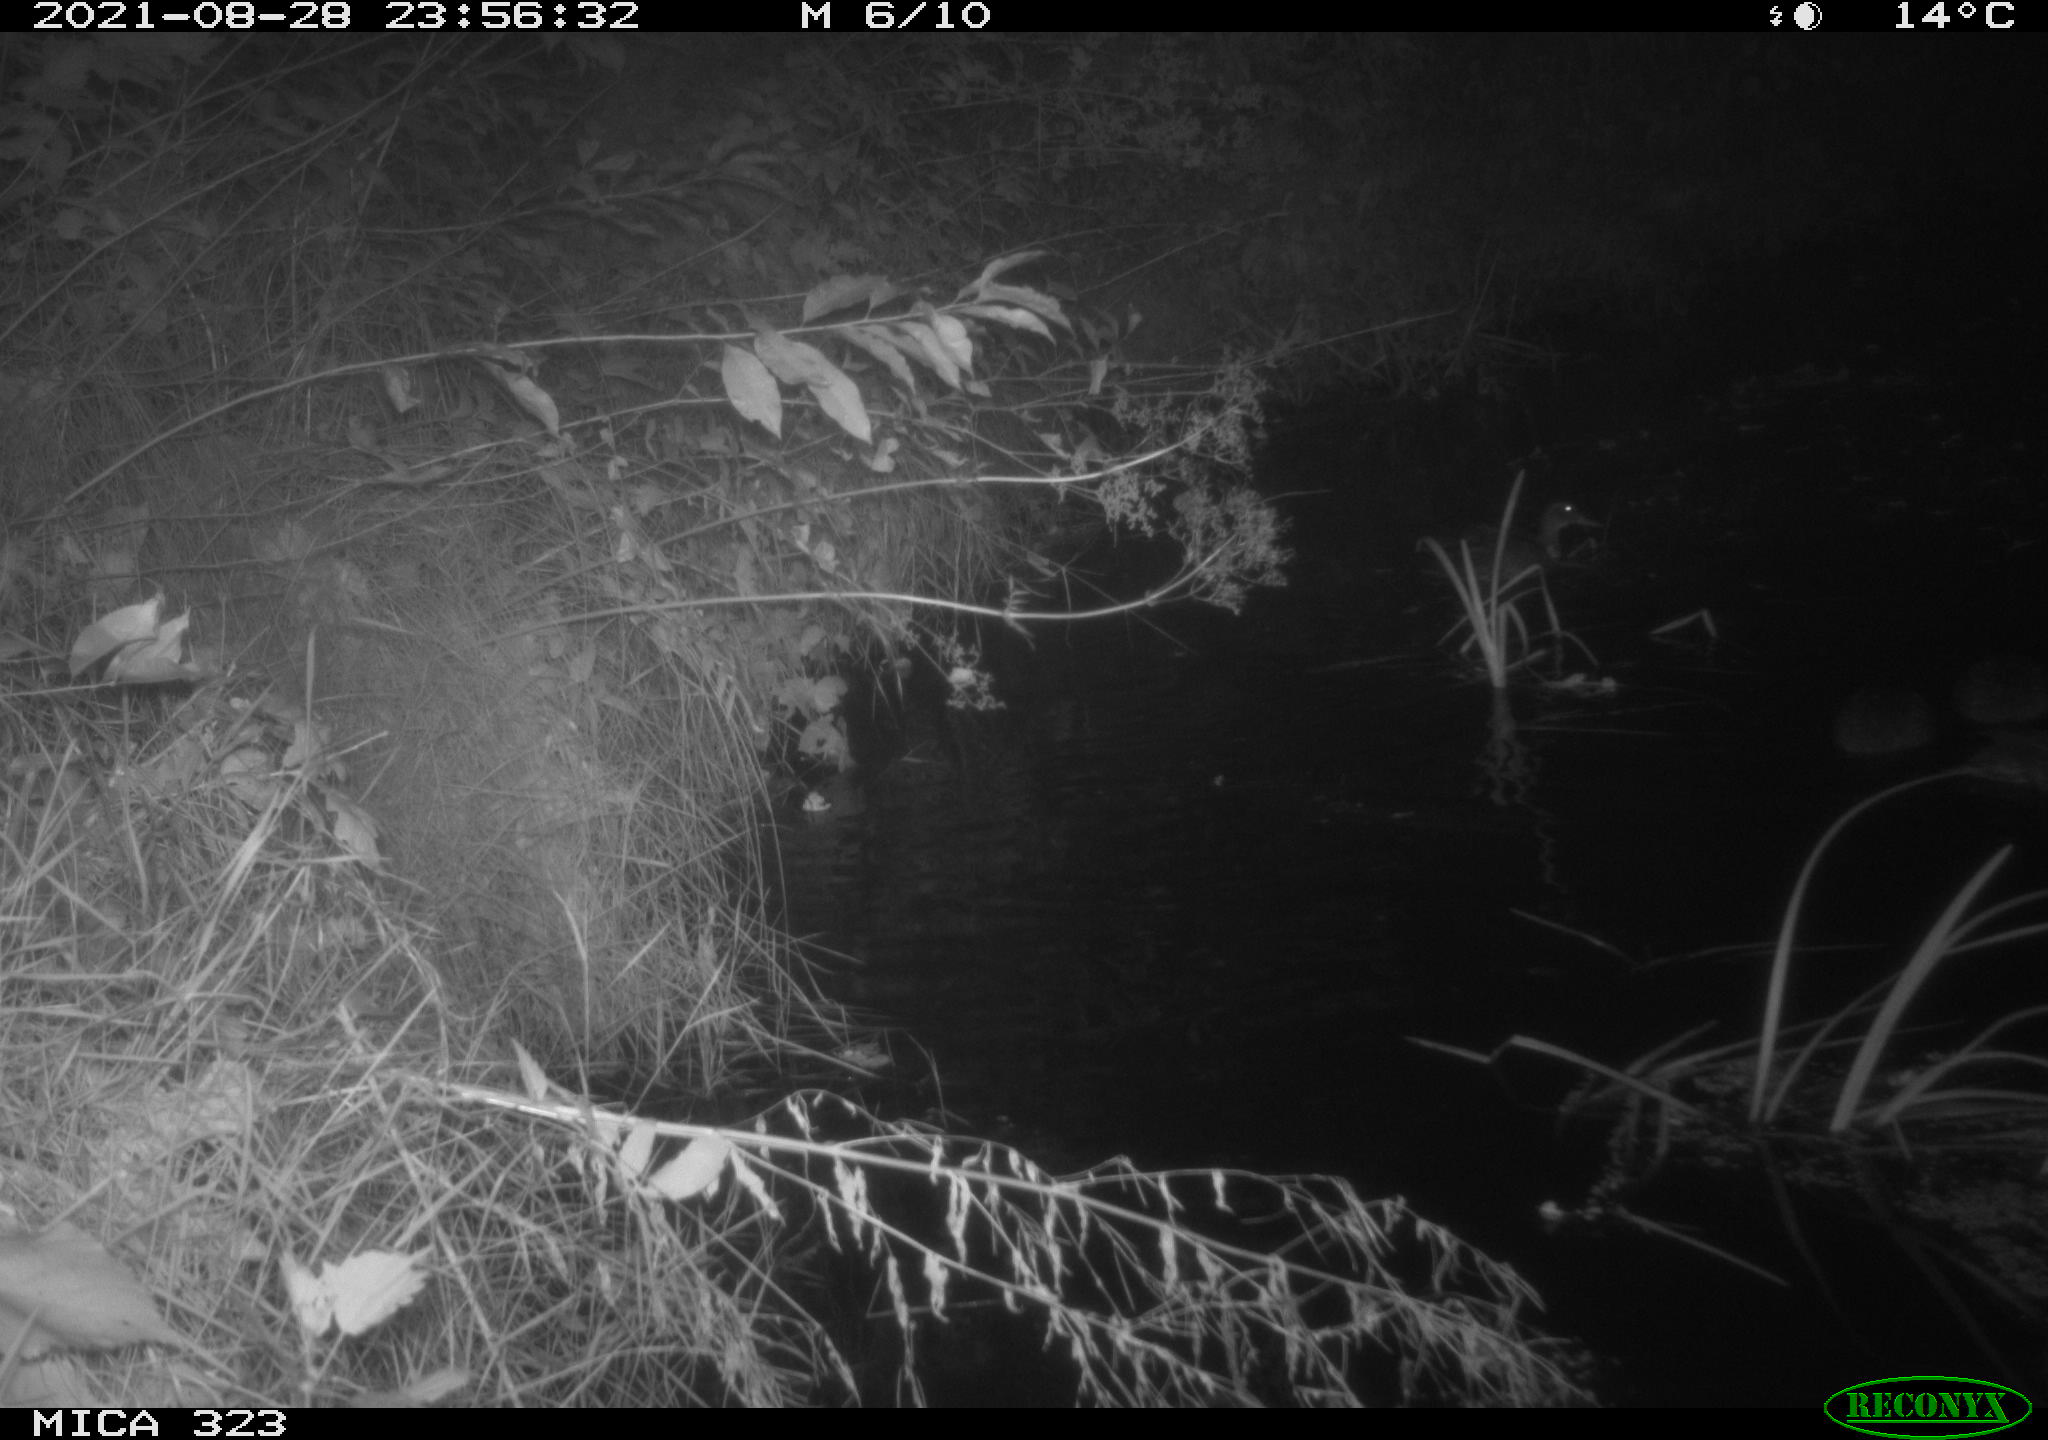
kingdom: Animalia
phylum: Chordata
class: Aves
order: Anseriformes
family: Anatidae
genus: Anas
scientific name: Anas
